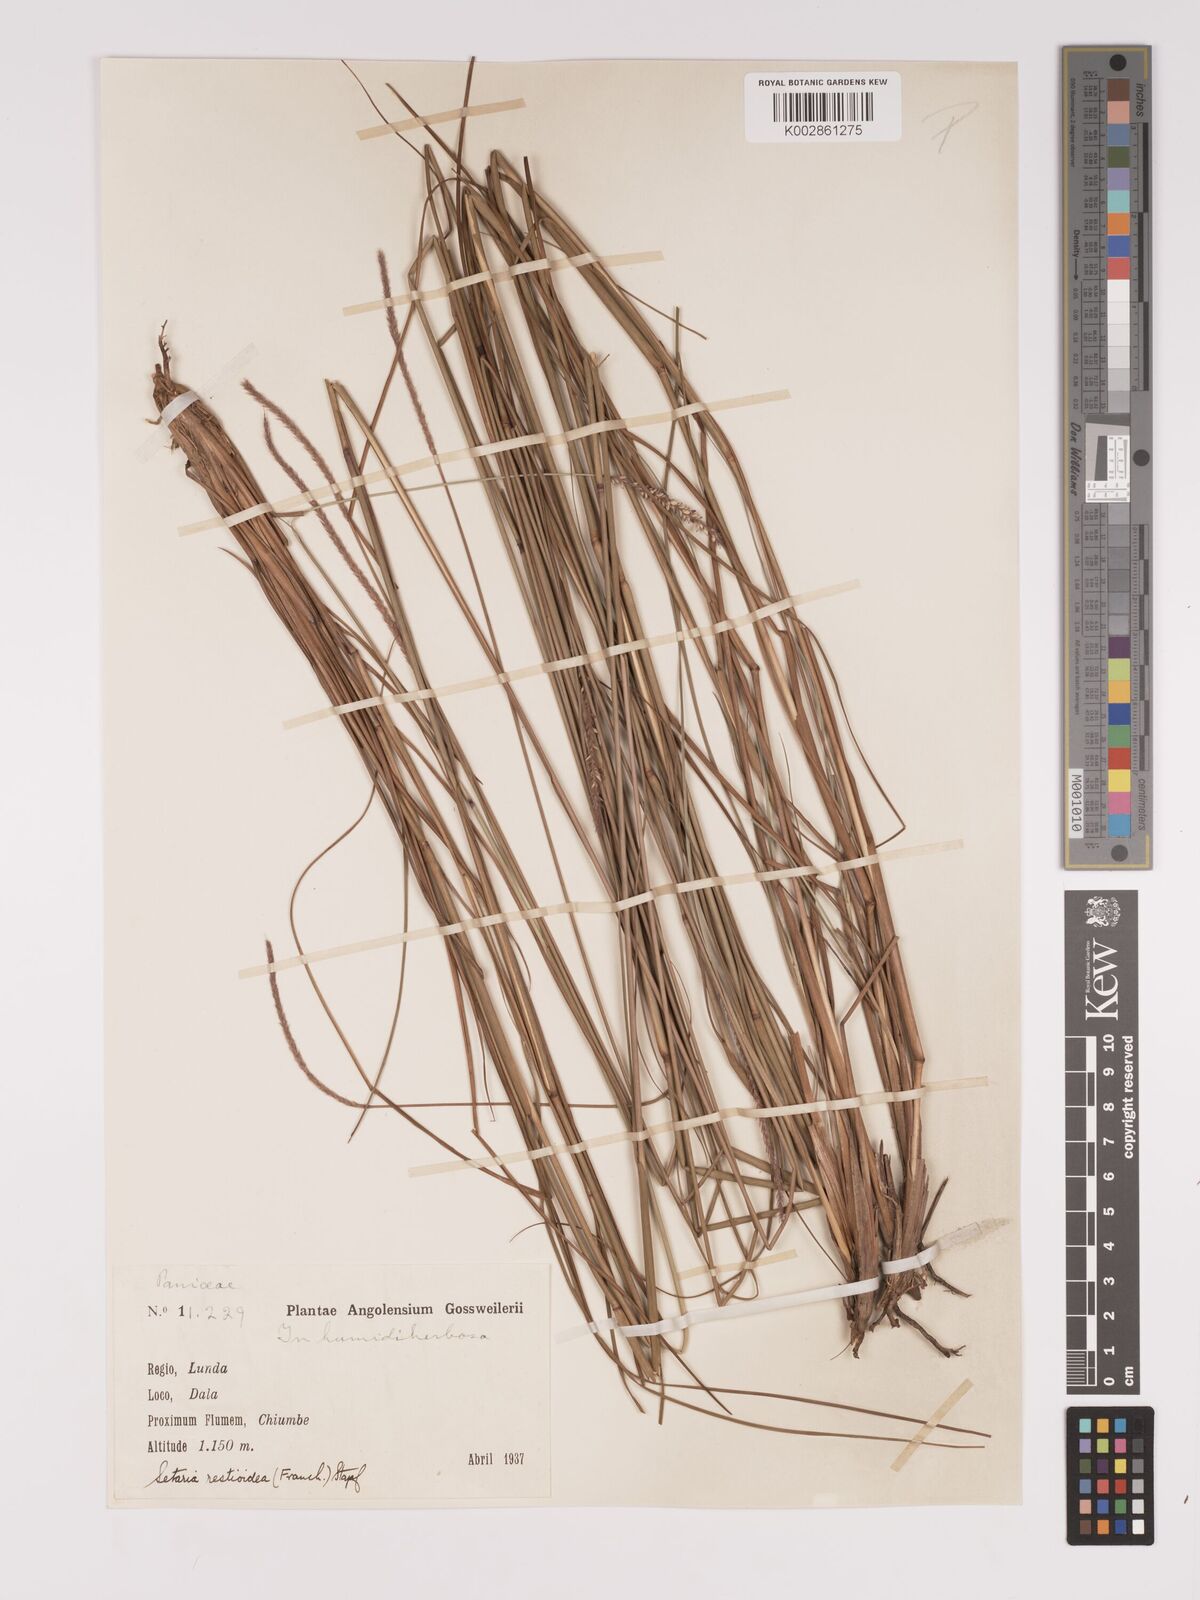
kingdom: Plantae
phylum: Tracheophyta
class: Liliopsida
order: Poales
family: Poaceae
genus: Setaria
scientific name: Setaria restioidea
